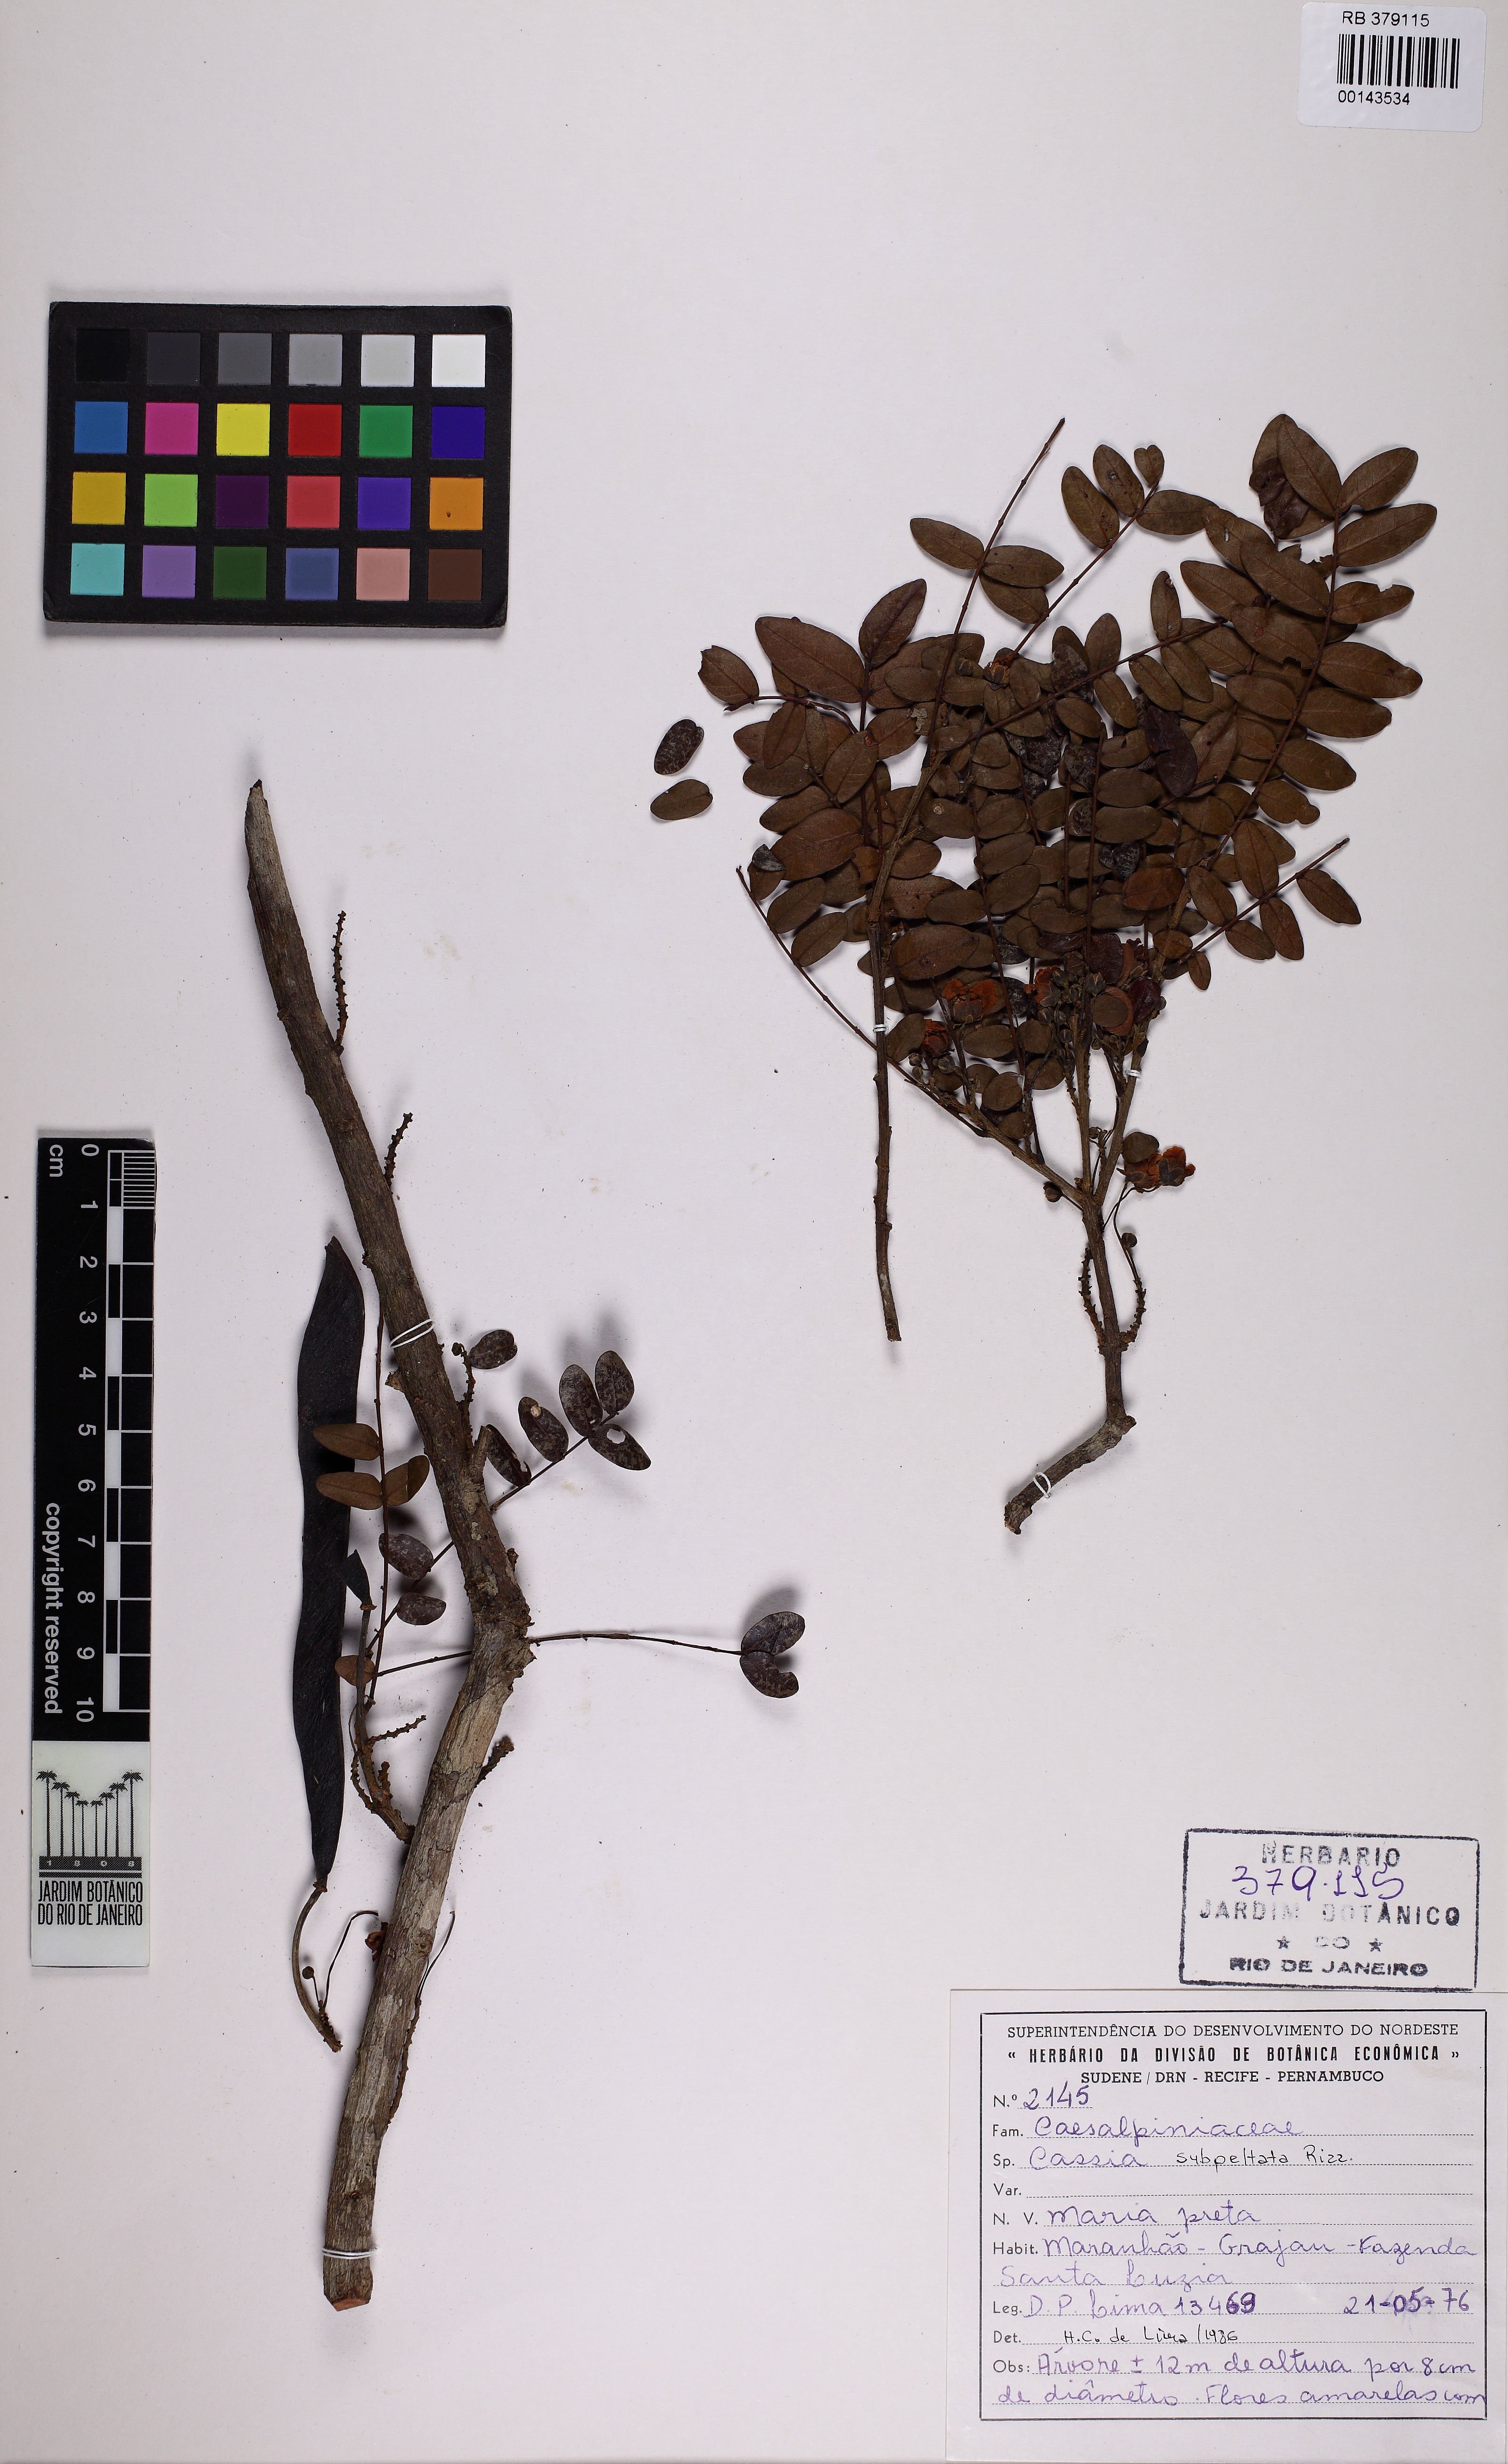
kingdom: Plantae
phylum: Tracheophyta
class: Magnoliopsida
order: Fabales
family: Fabaceae
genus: Chamaecrista
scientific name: Chamaecrista subpeltata
